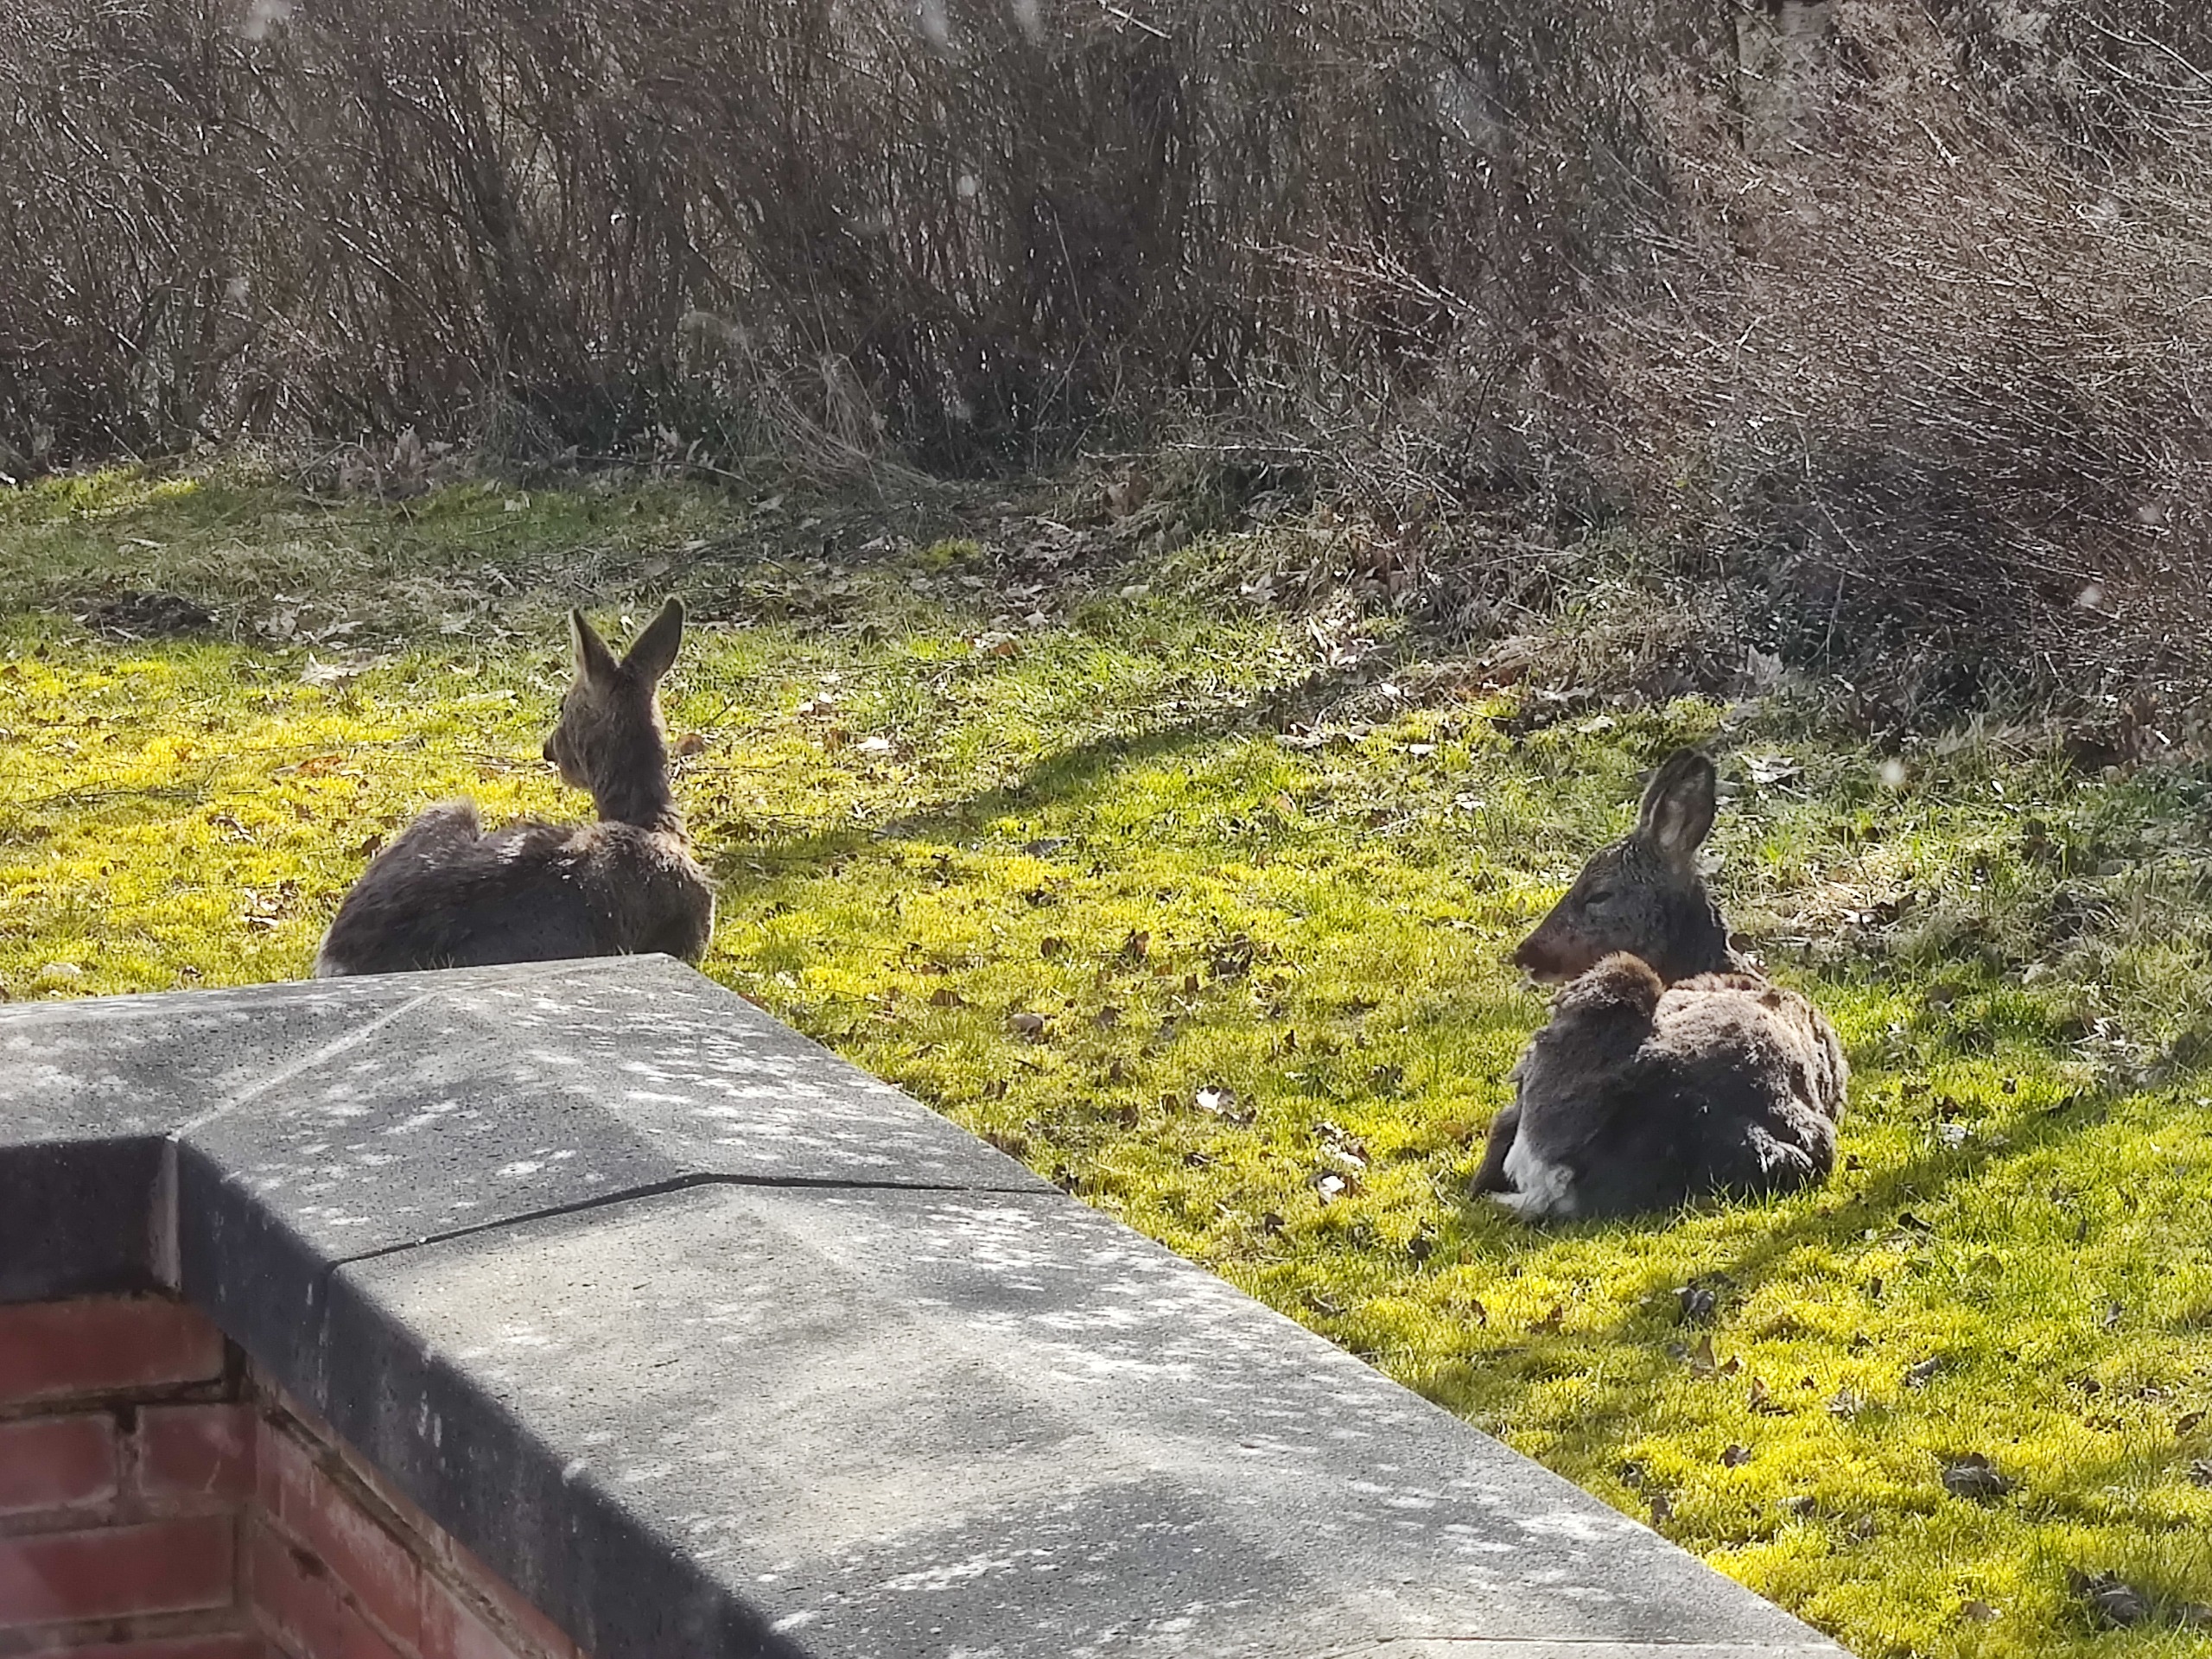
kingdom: Animalia
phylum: Chordata
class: Mammalia
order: Artiodactyla
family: Cervidae
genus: Capreolus
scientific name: Capreolus capreolus
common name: Rådyr
